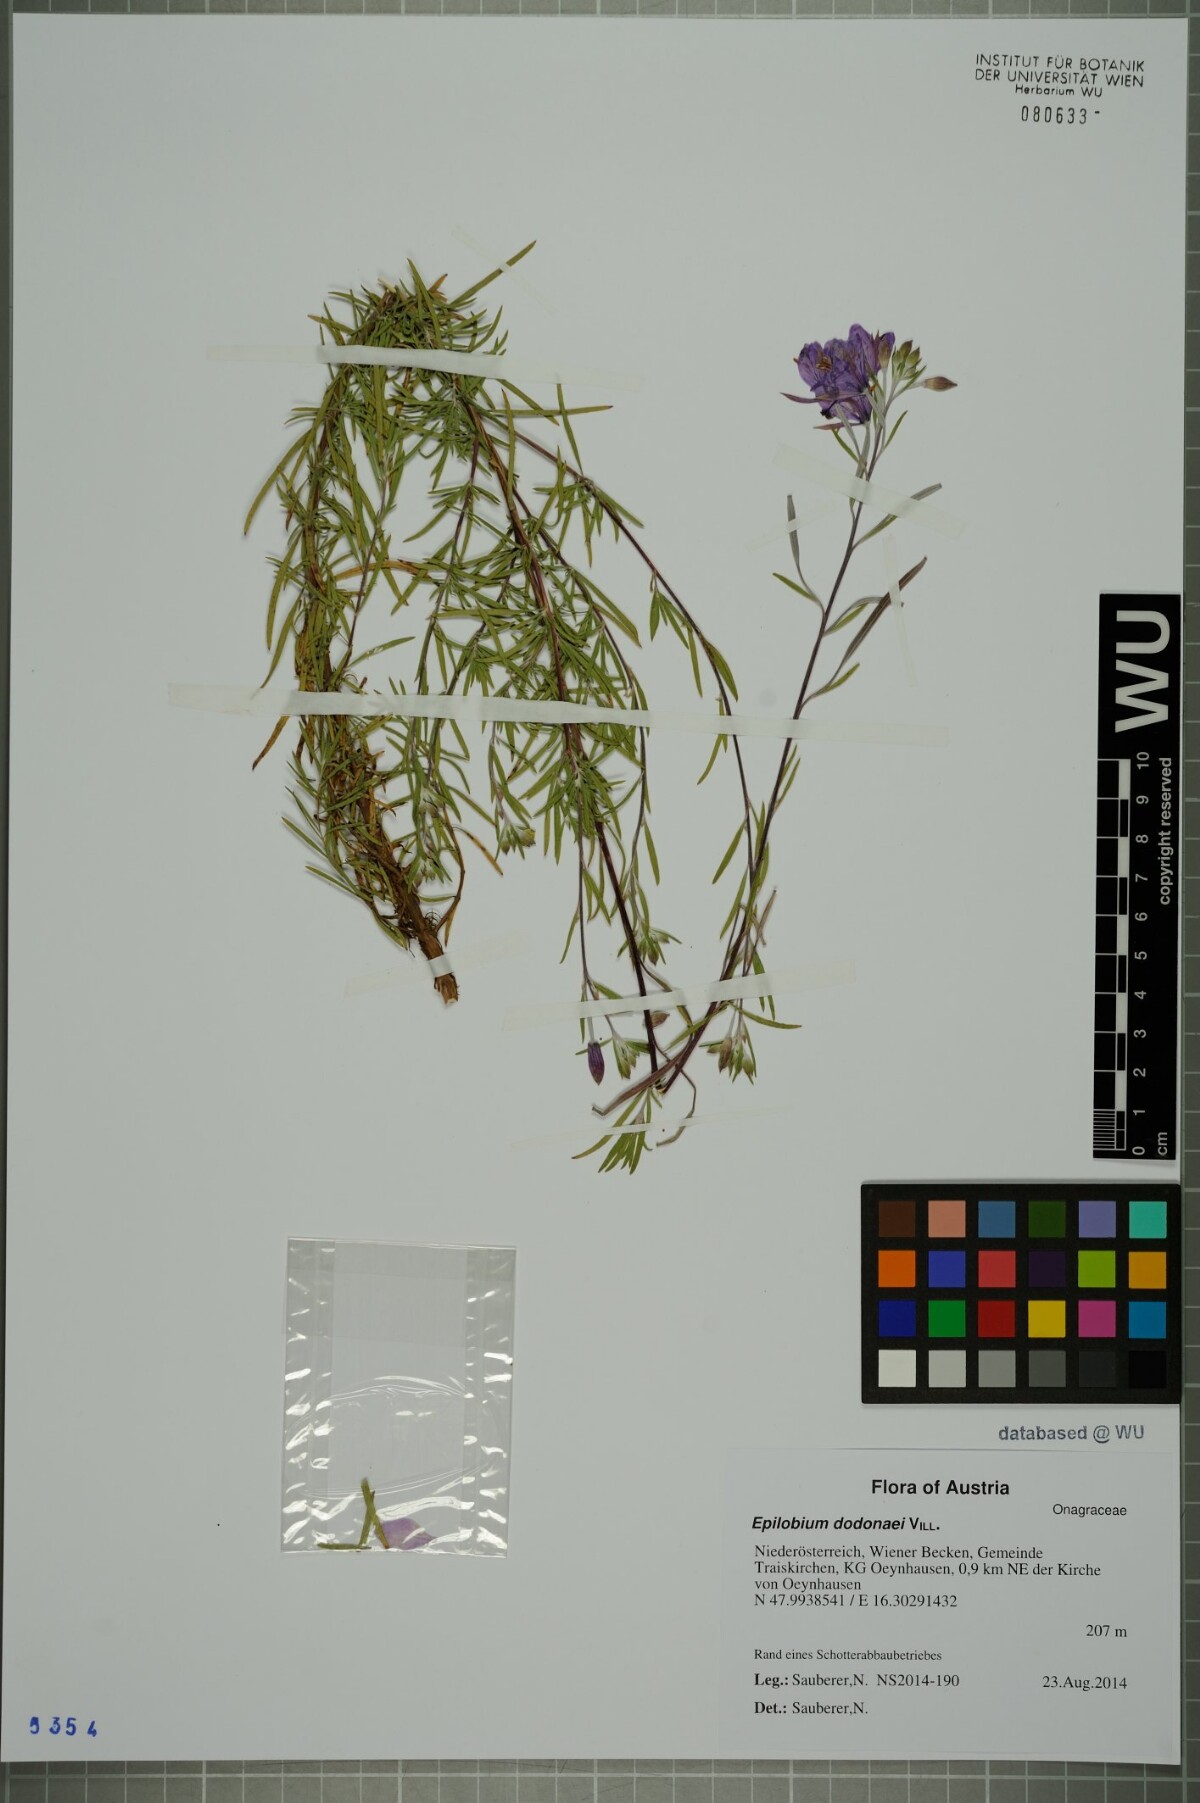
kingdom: Plantae
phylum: Tracheophyta
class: Magnoliopsida
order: Myrtales
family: Onagraceae
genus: Chamaenerion
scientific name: Chamaenerion dodonaei
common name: Rosemary-leaved willowherb
